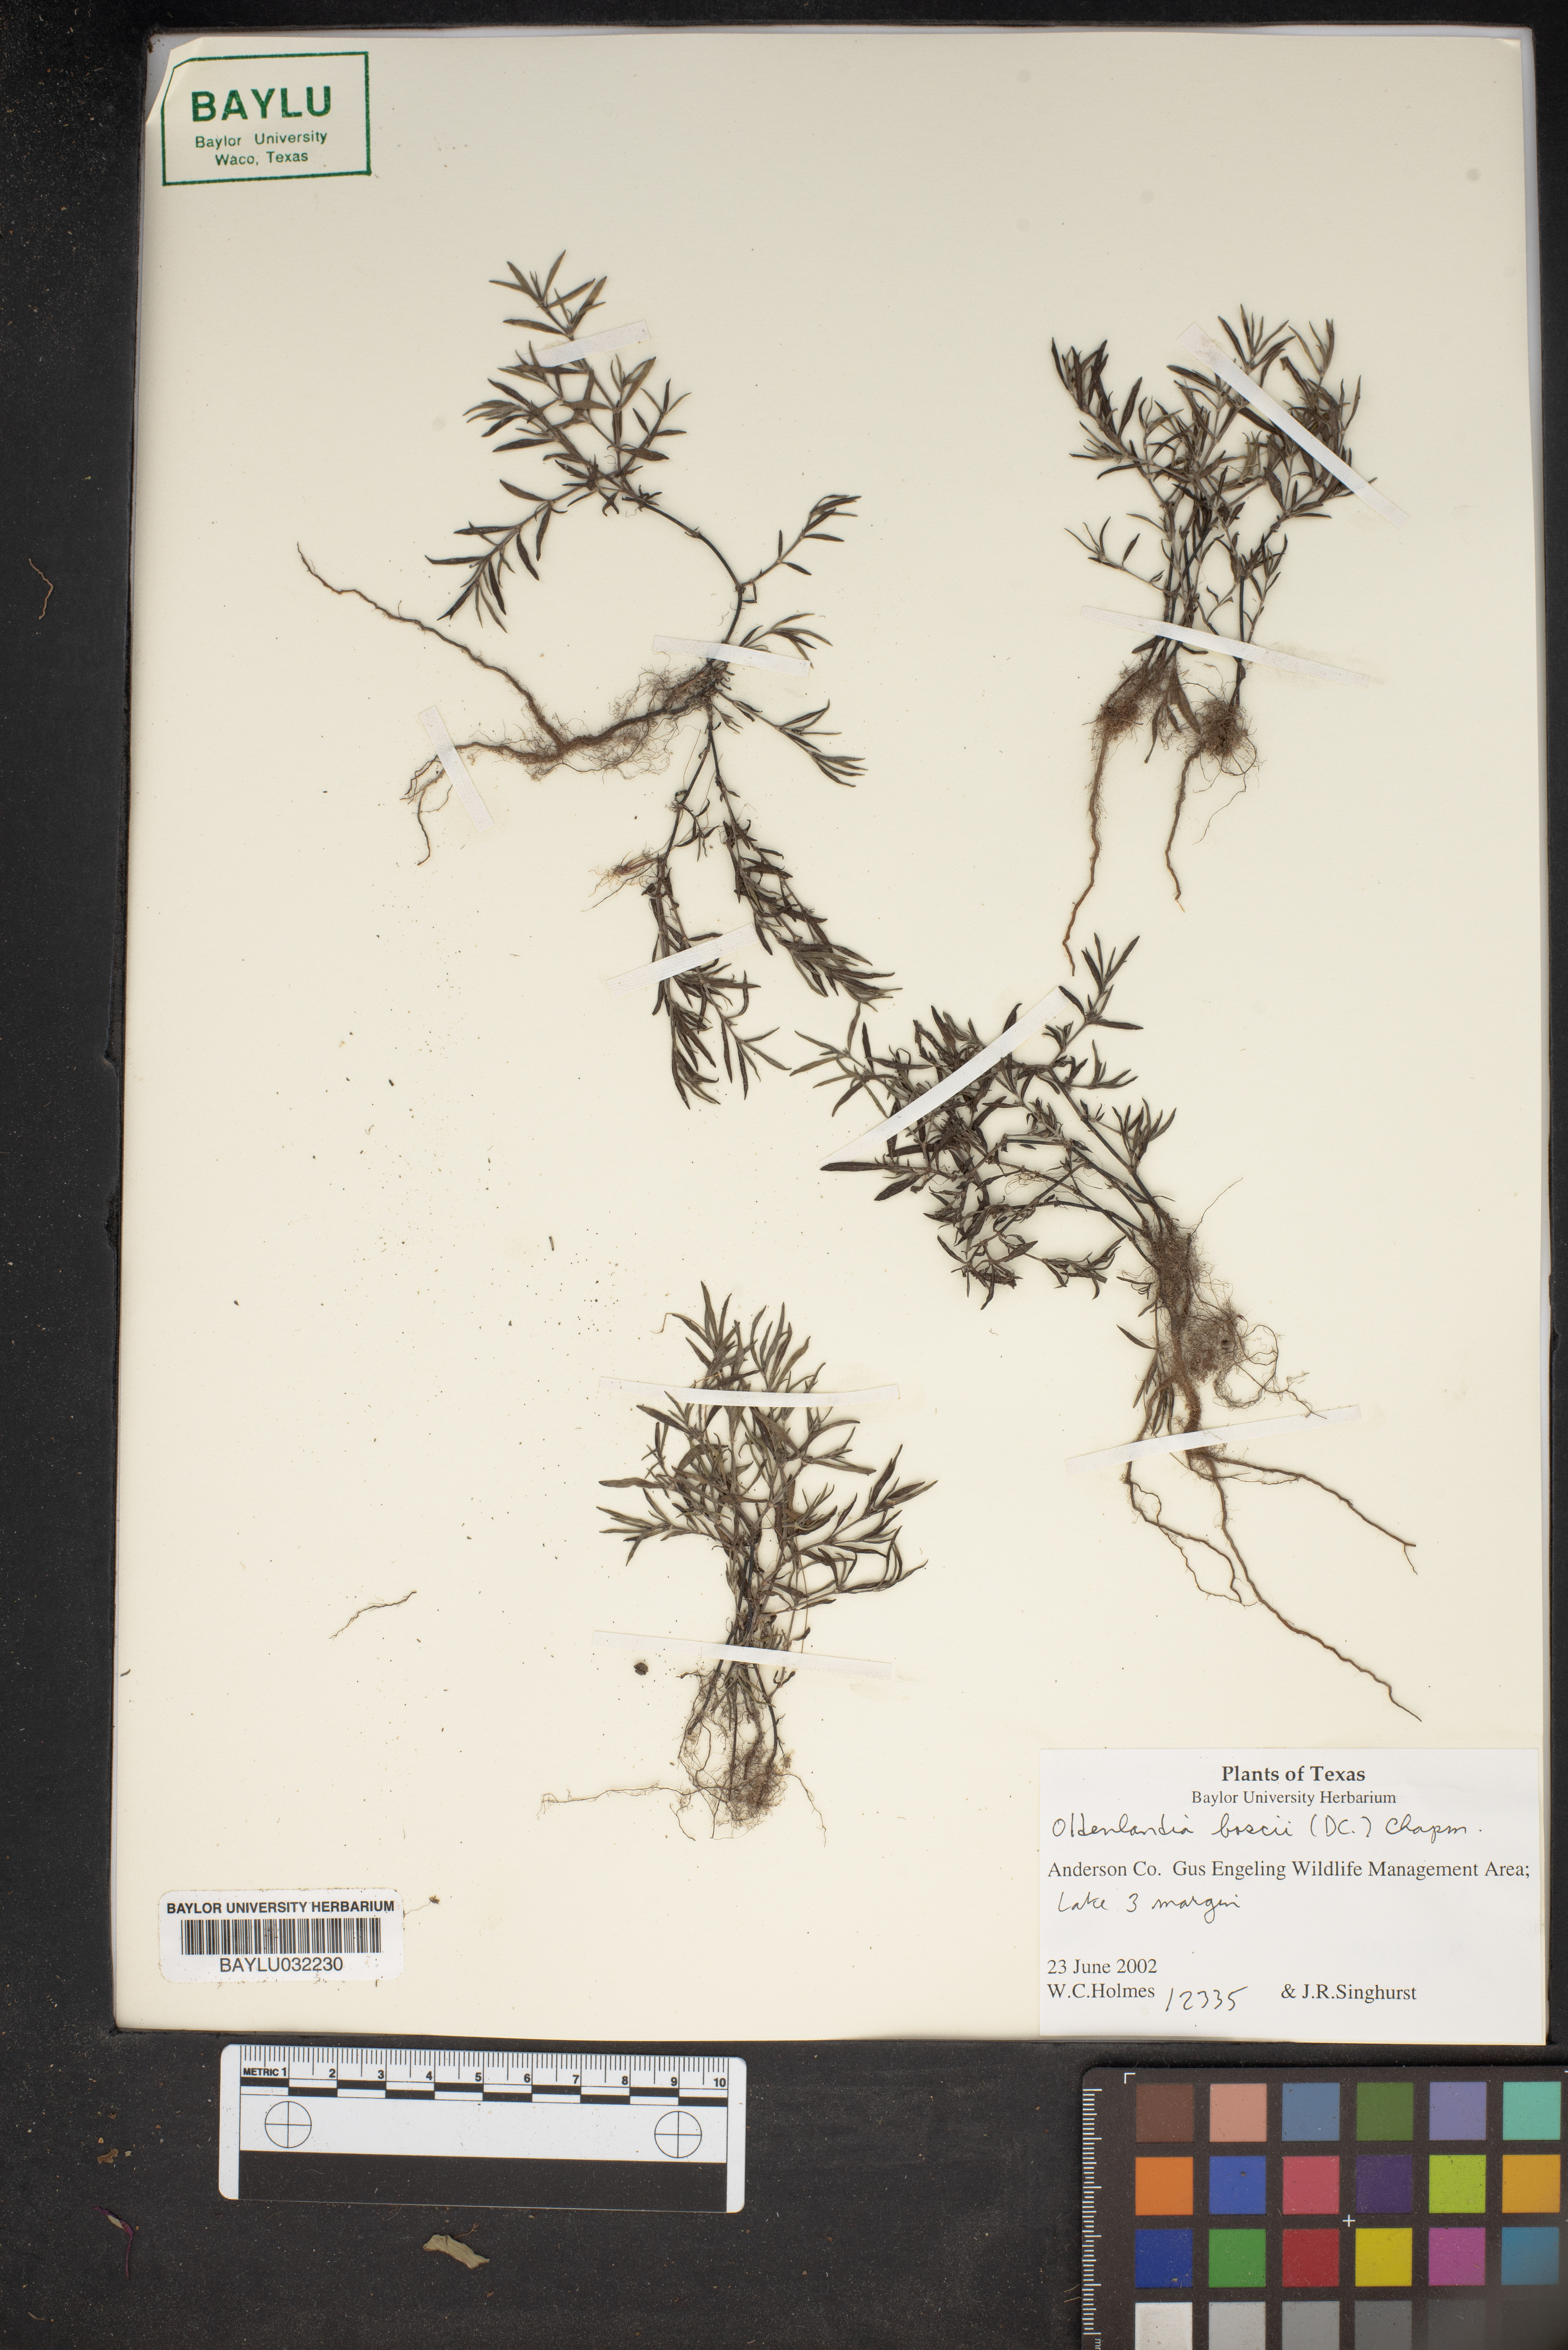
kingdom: Plantae
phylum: Tracheophyta
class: Magnoliopsida
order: Gentianales
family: Rubiaceae
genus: Oldenlandia
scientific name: Oldenlandia boscii
